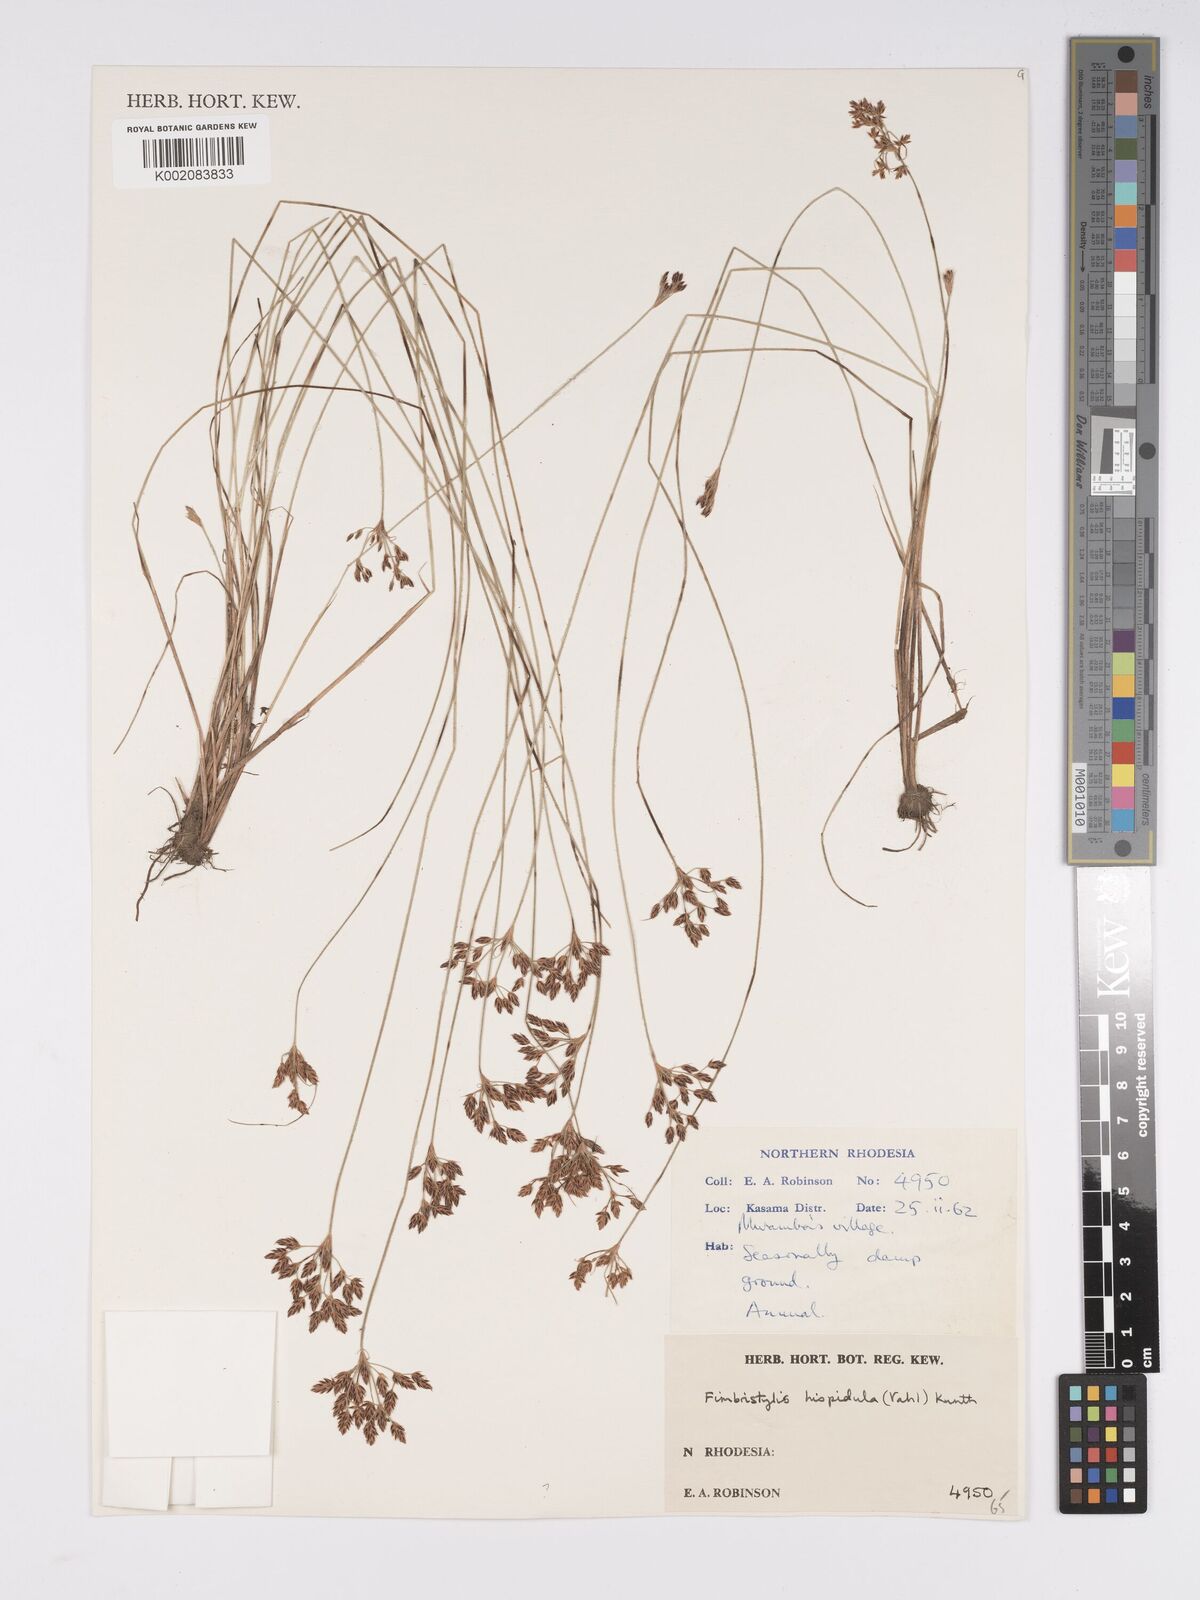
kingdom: Plantae
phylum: Tracheophyta
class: Liliopsida
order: Poales
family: Cyperaceae
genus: Bulbostylis
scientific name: Bulbostylis hispidula
